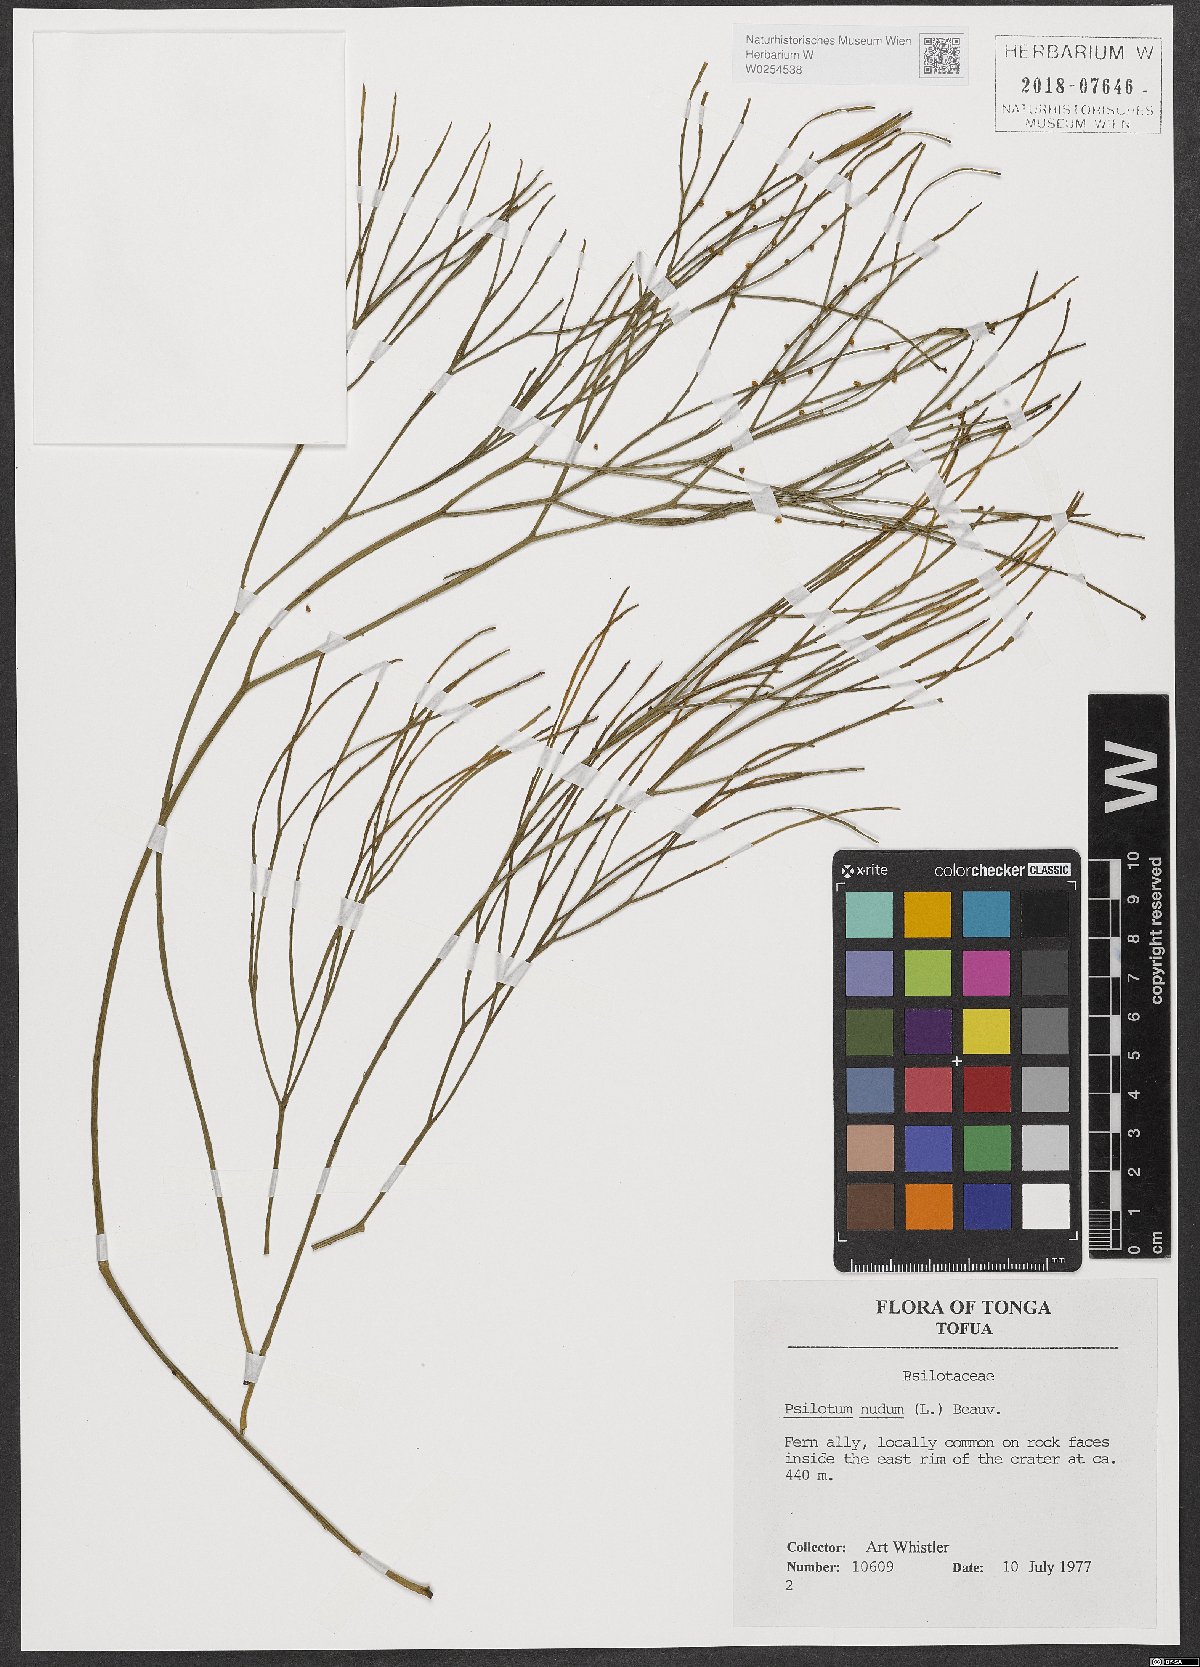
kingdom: Plantae
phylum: Tracheophyta
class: Polypodiopsida
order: Psilotales
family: Psilotaceae
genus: Psilotum
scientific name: Psilotum nudum
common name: Skeleton fork fern
